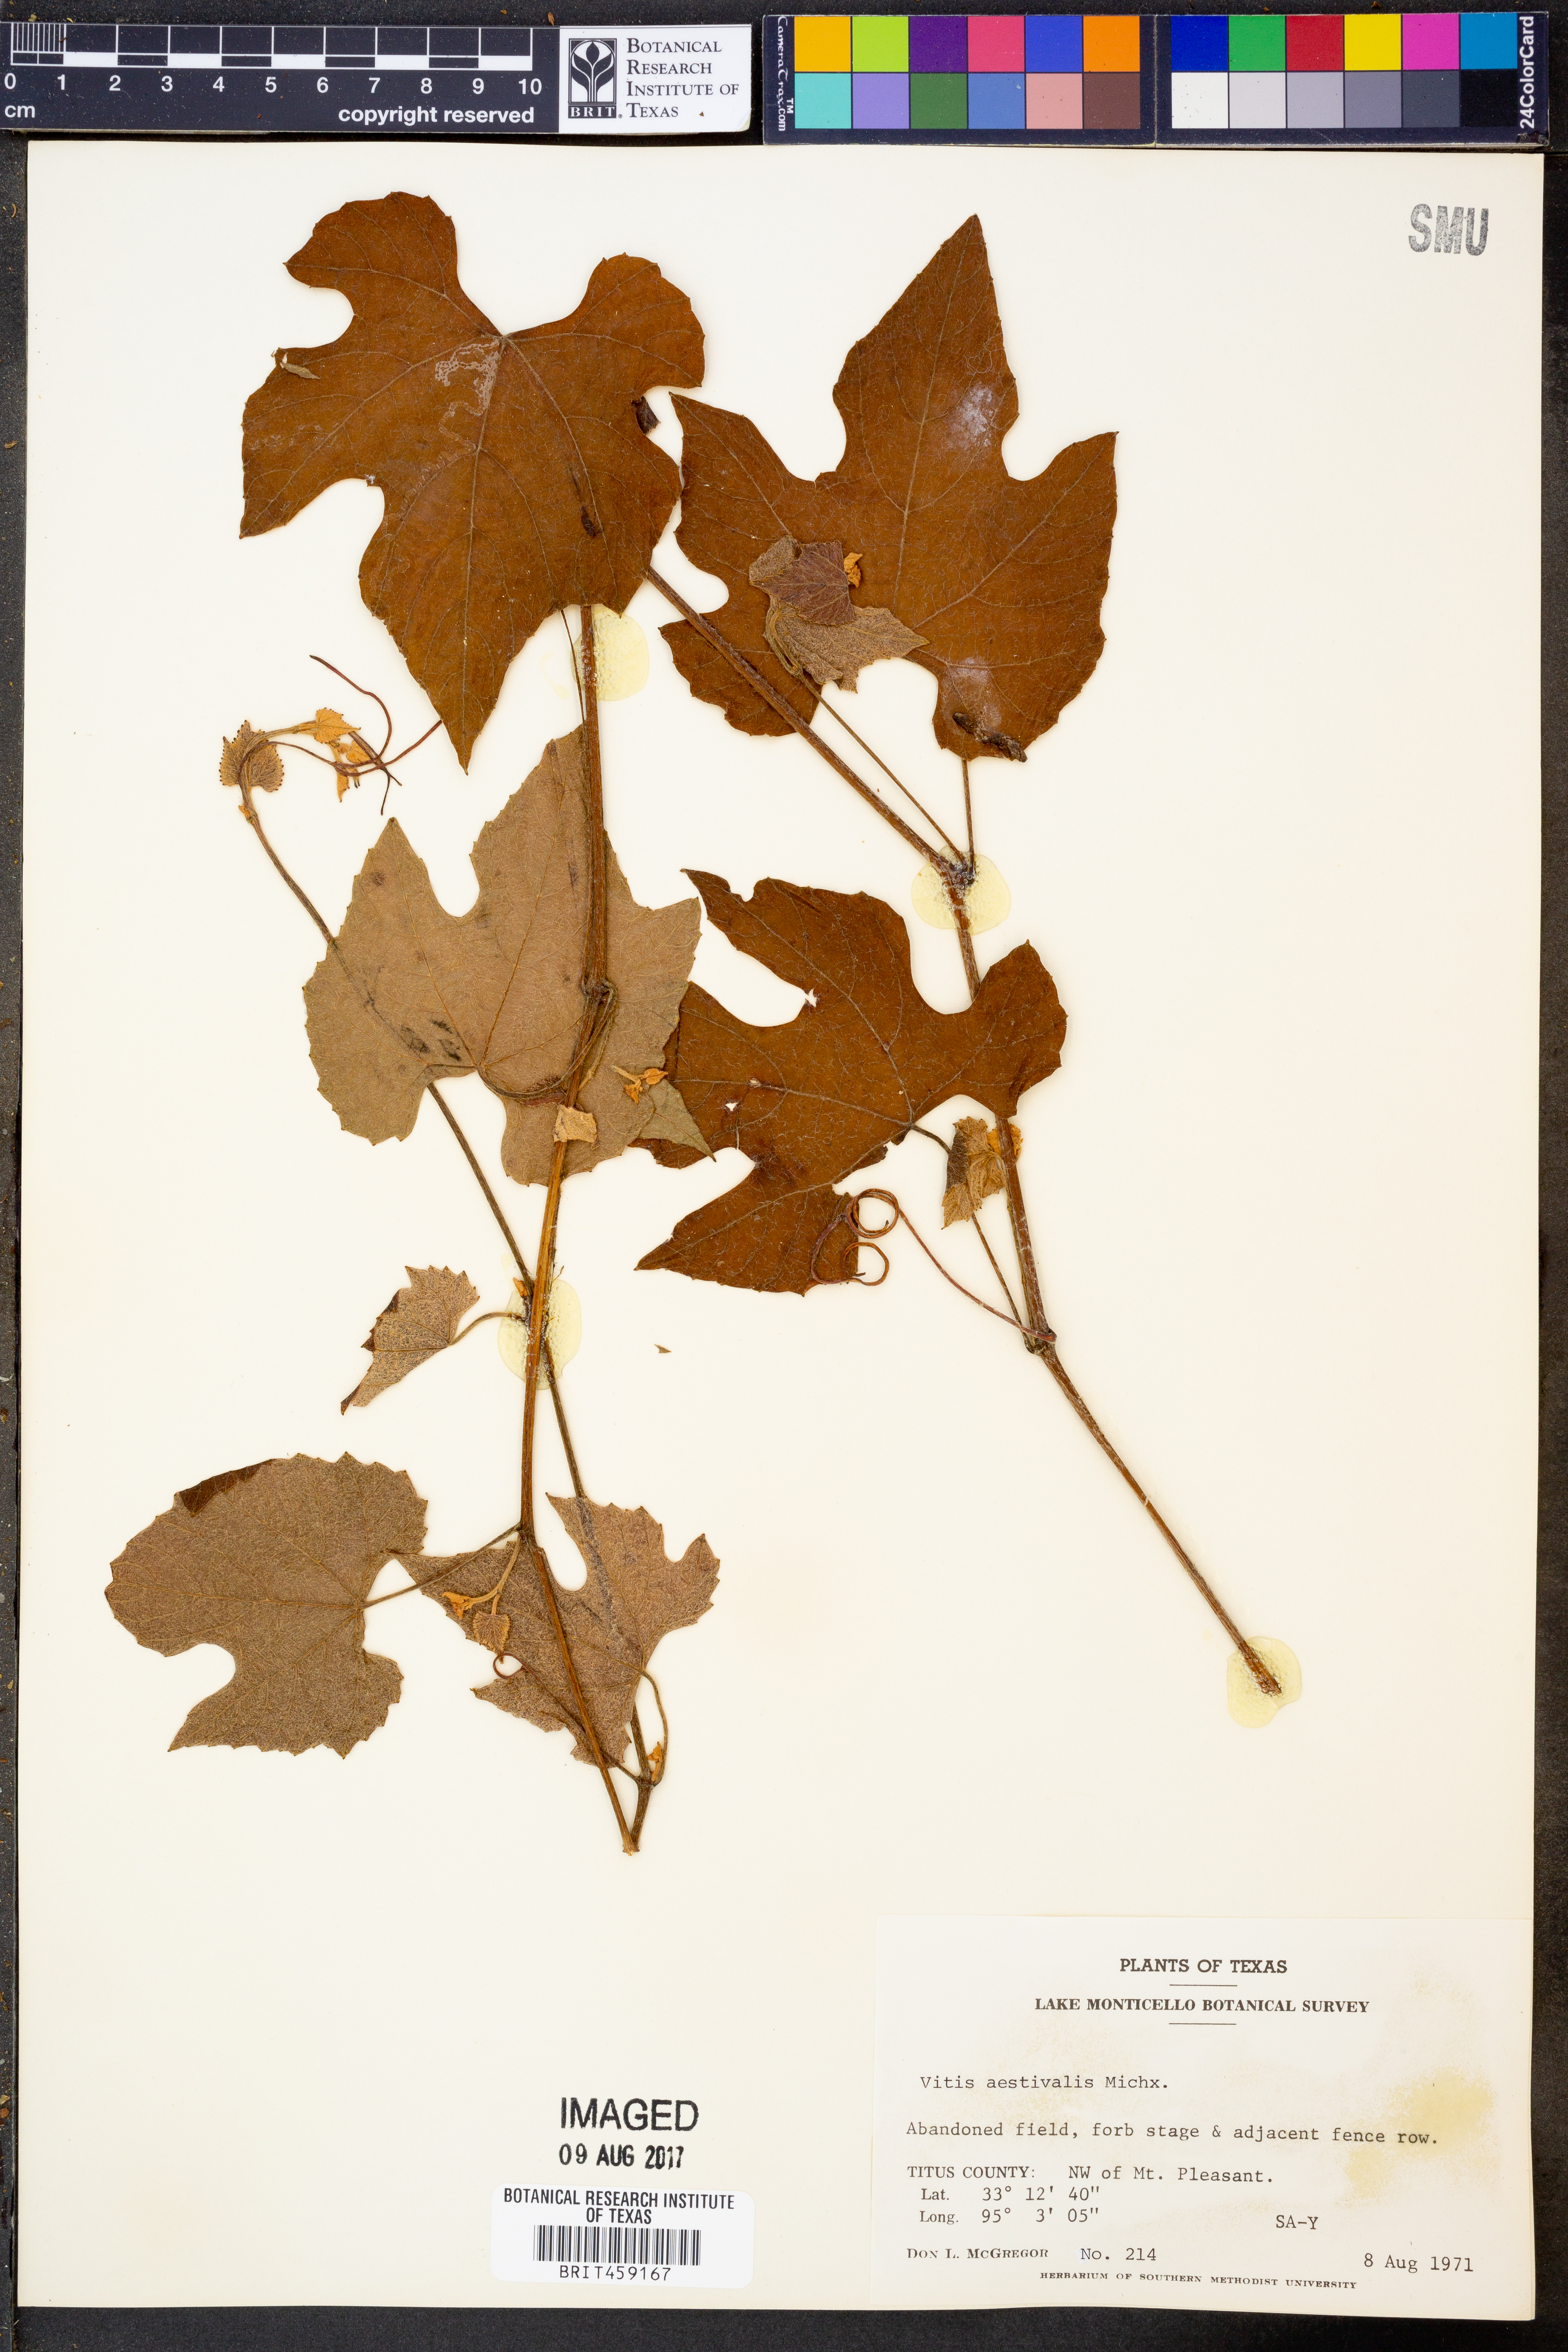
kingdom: Plantae
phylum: Tracheophyta
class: Magnoliopsida
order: Vitales
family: Vitaceae
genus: Vitis
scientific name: Vitis aestivalis
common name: Pigeon grape
